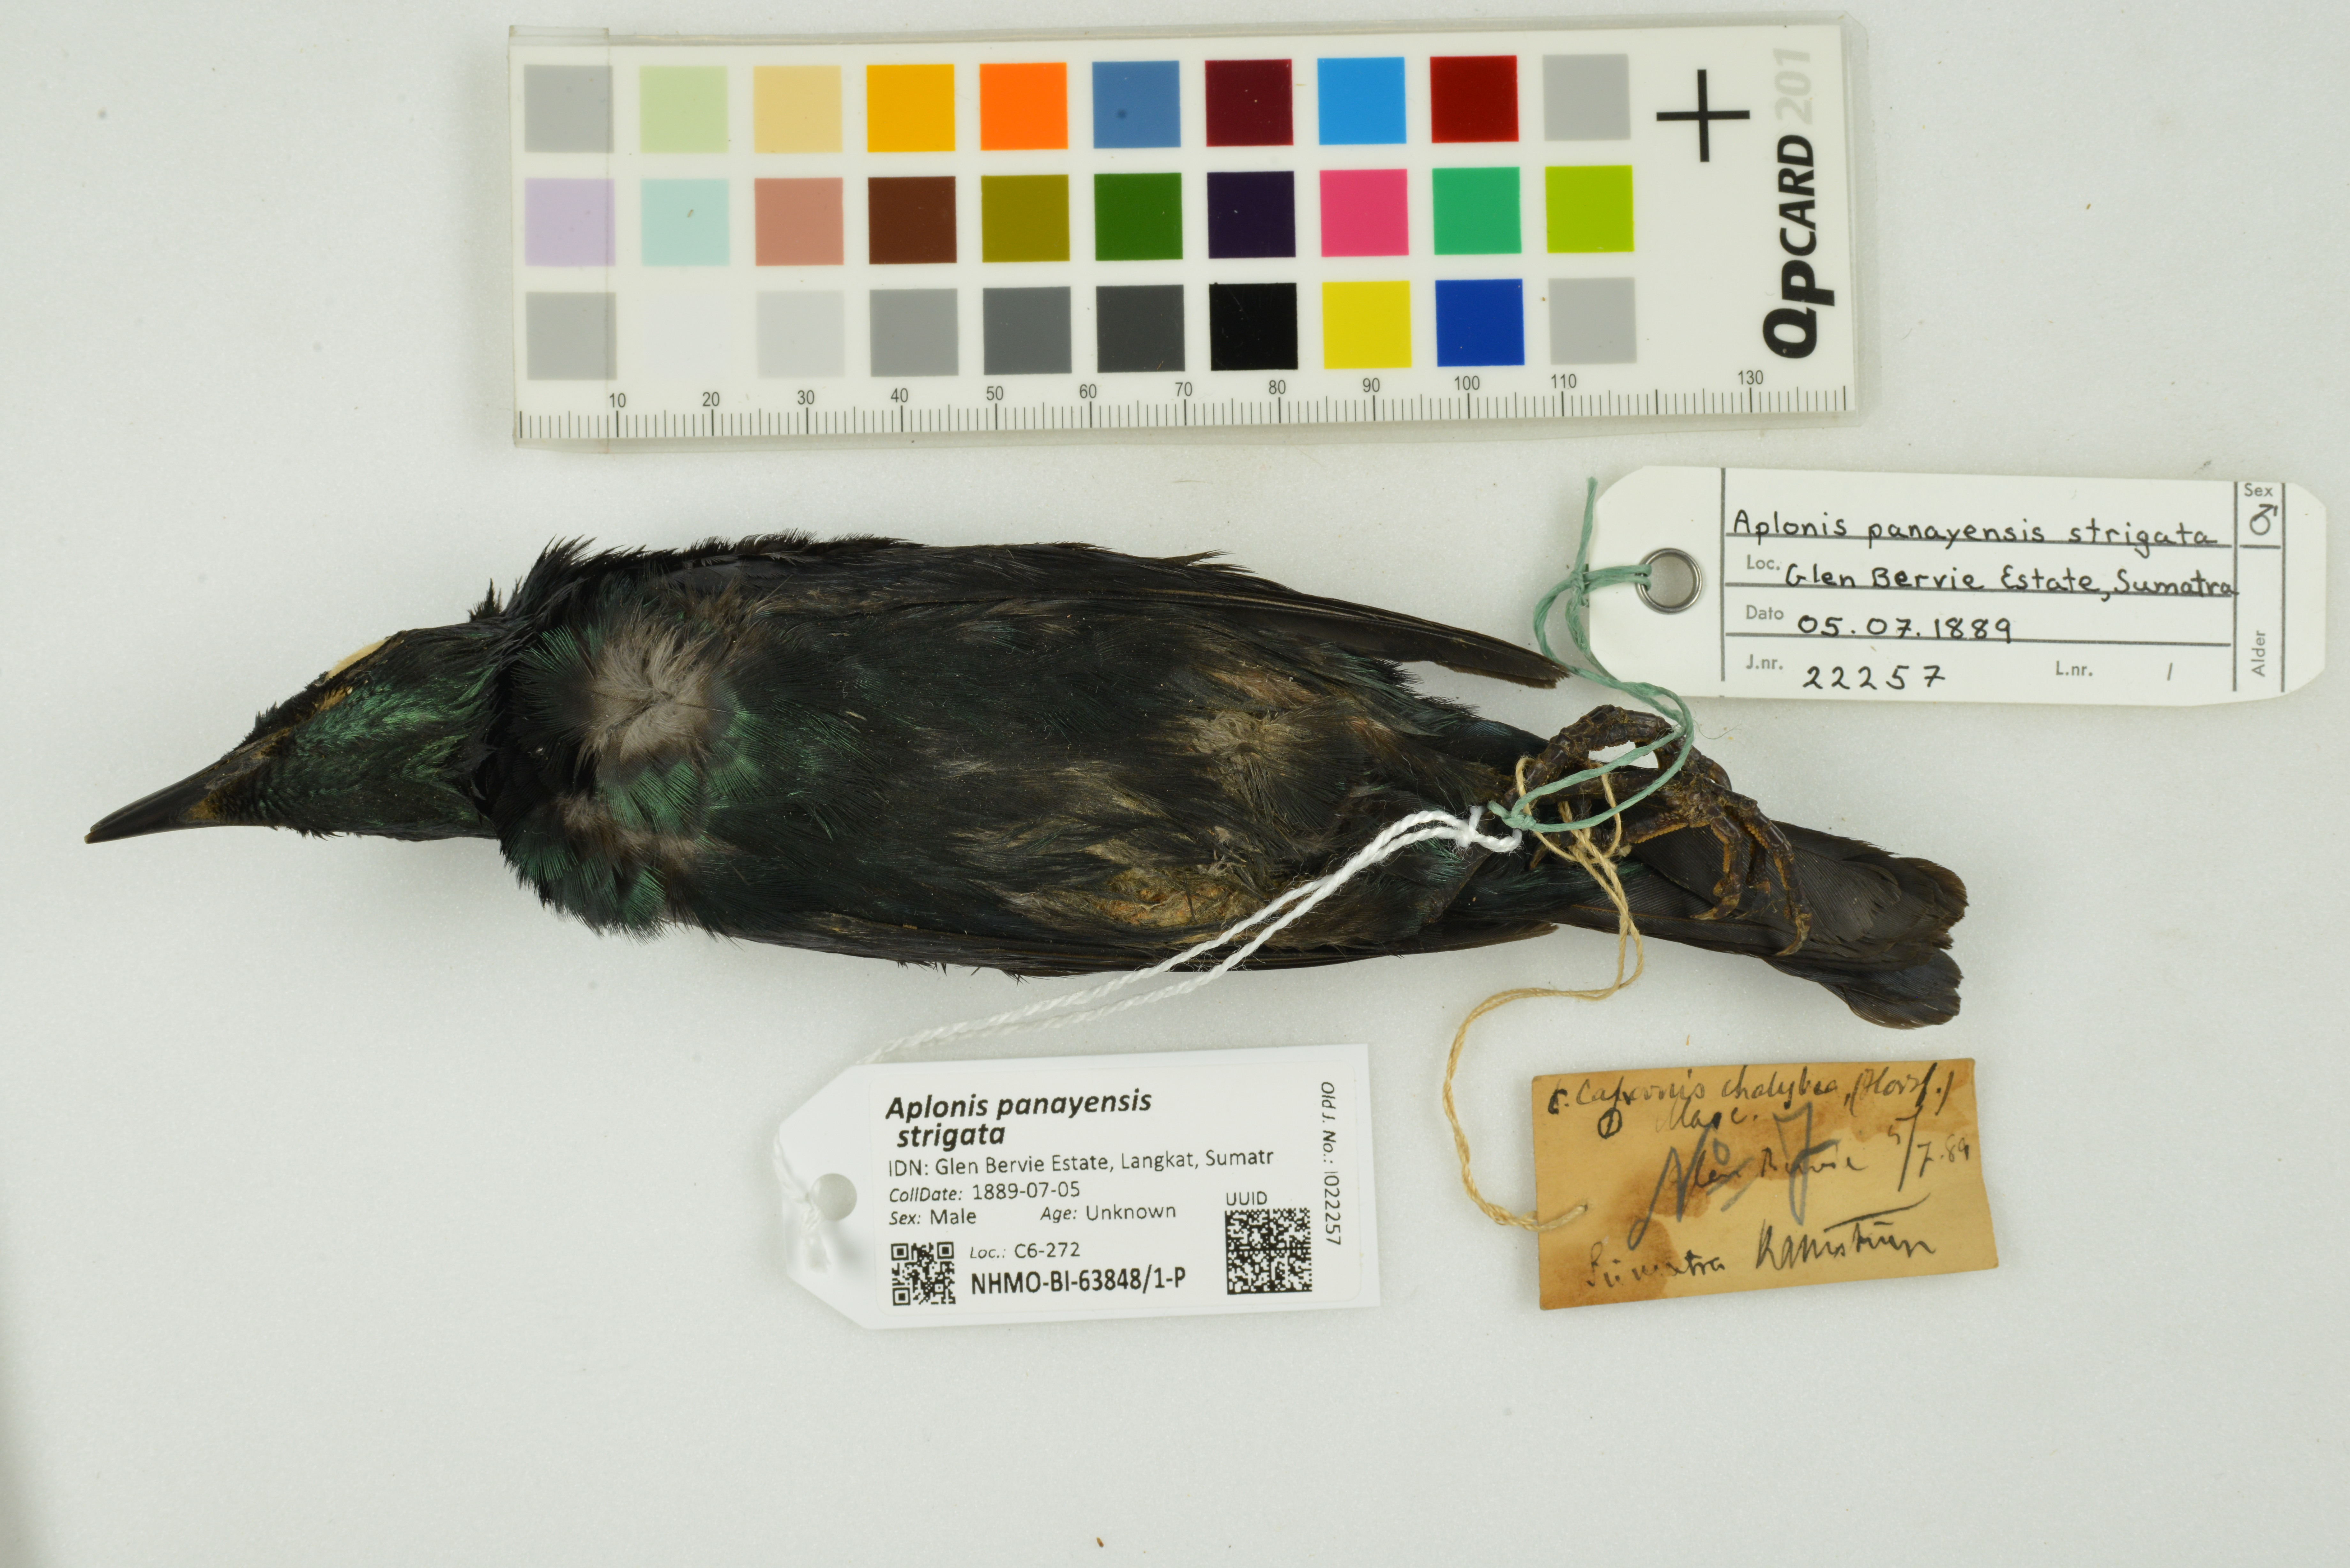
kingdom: Animalia
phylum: Chordata
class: Aves
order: Passeriformes
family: Sturnidae
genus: Aplonis
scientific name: Aplonis panayensis
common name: Asian glossy starling
